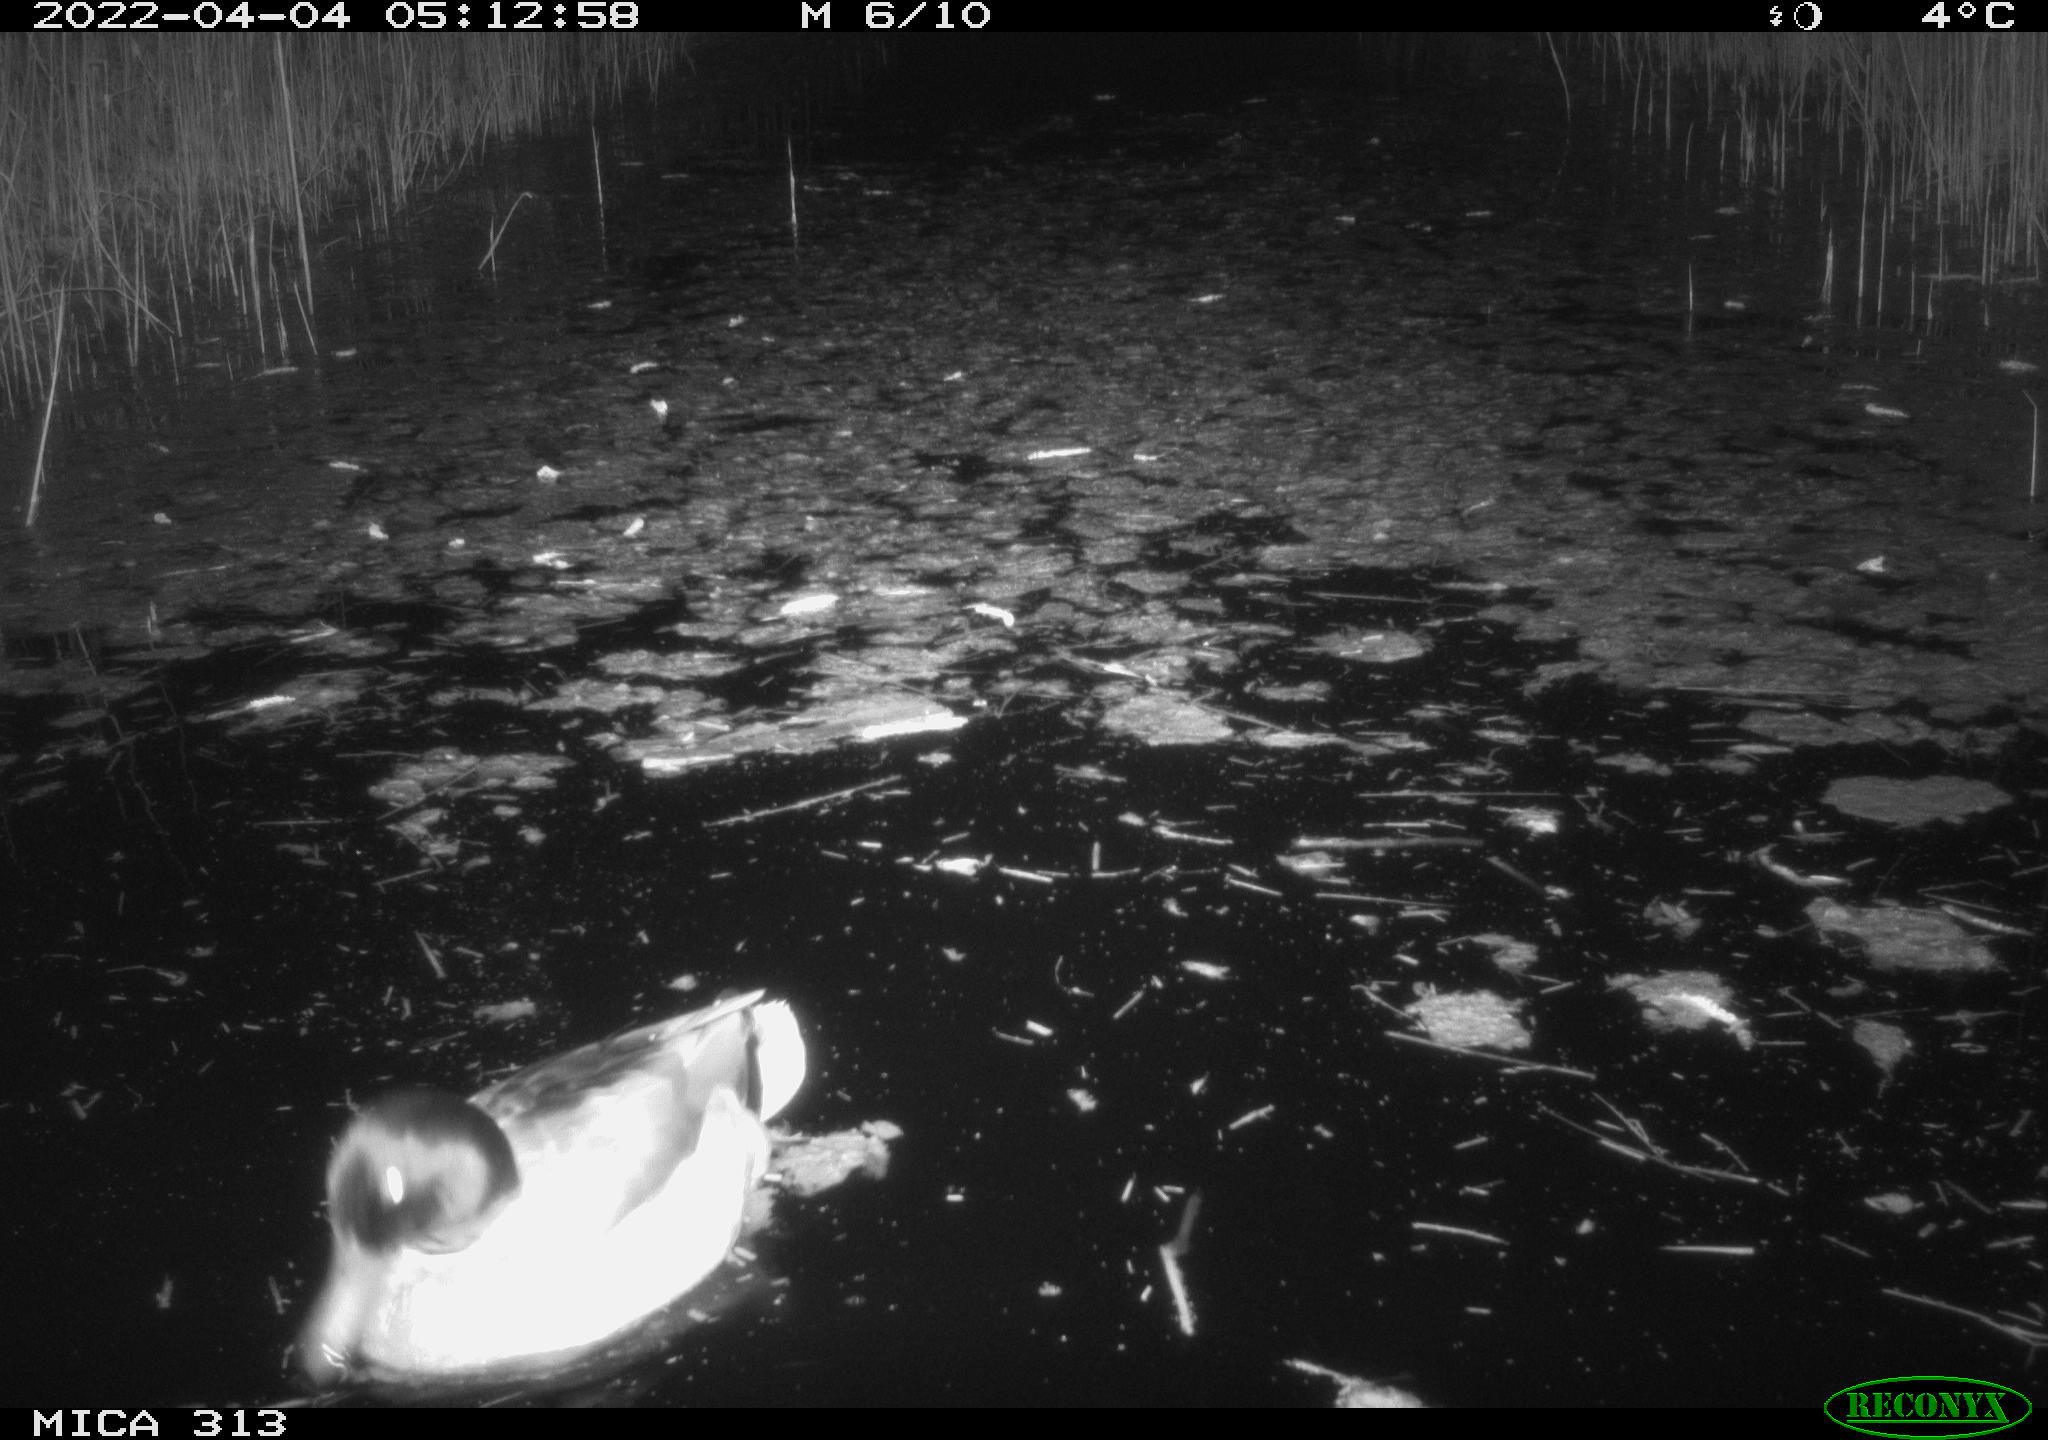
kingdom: Animalia
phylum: Chordata
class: Aves
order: Anseriformes
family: Anatidae
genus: Mareca
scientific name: Mareca strepera
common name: Gadwall
